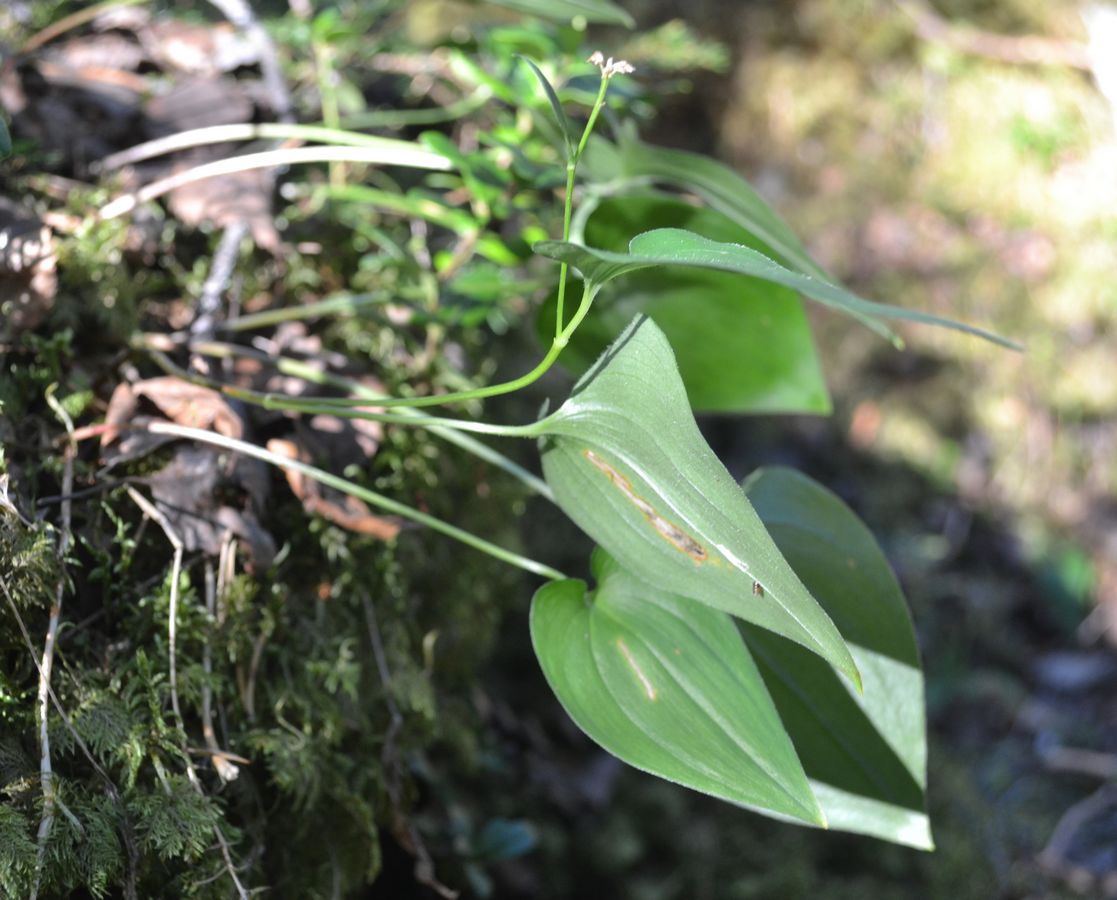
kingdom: Plantae
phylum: Tracheophyta
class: Liliopsida
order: Asparagales
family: Asparagaceae
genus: Maianthemum
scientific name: Maianthemum bifolium
